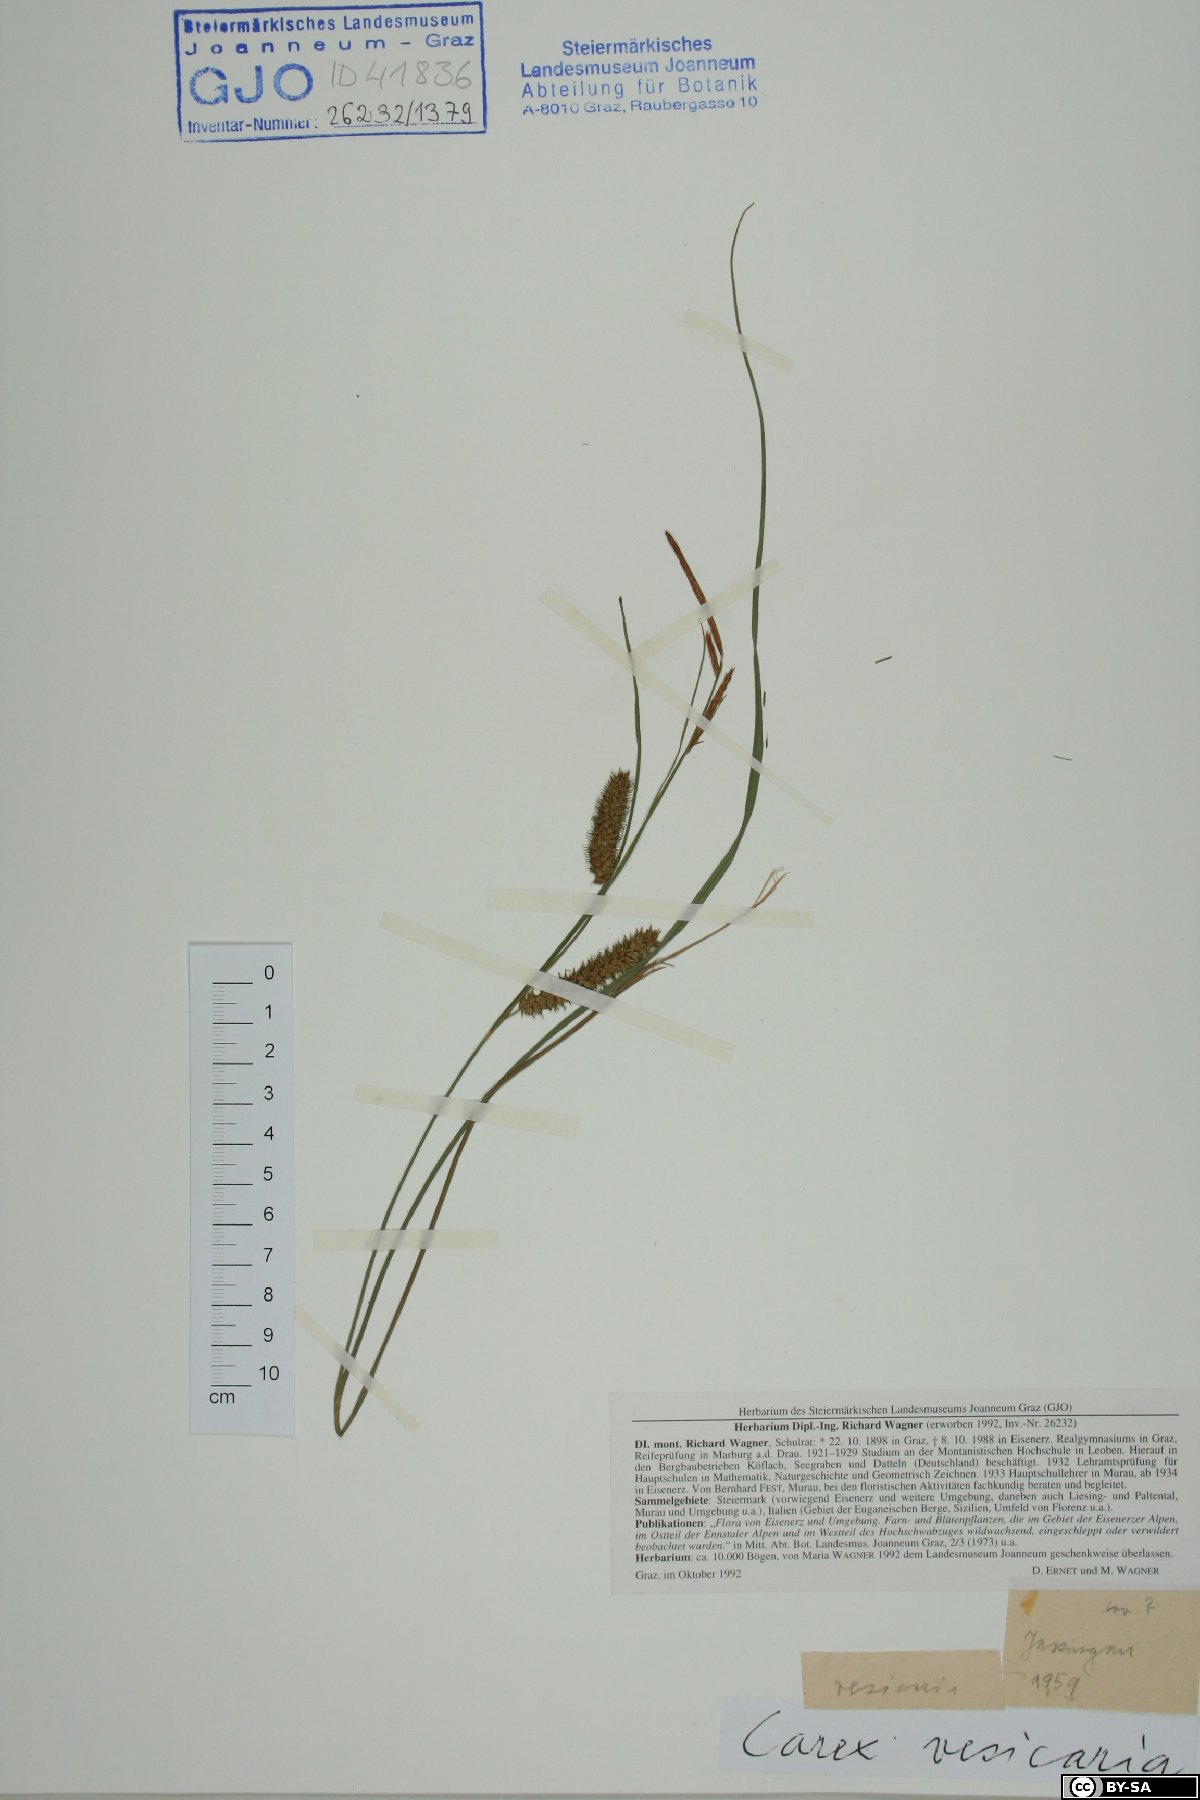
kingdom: Plantae
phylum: Tracheophyta
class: Liliopsida
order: Poales
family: Cyperaceae
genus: Carex
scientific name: Carex vesicaria
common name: Bladder-sedge
